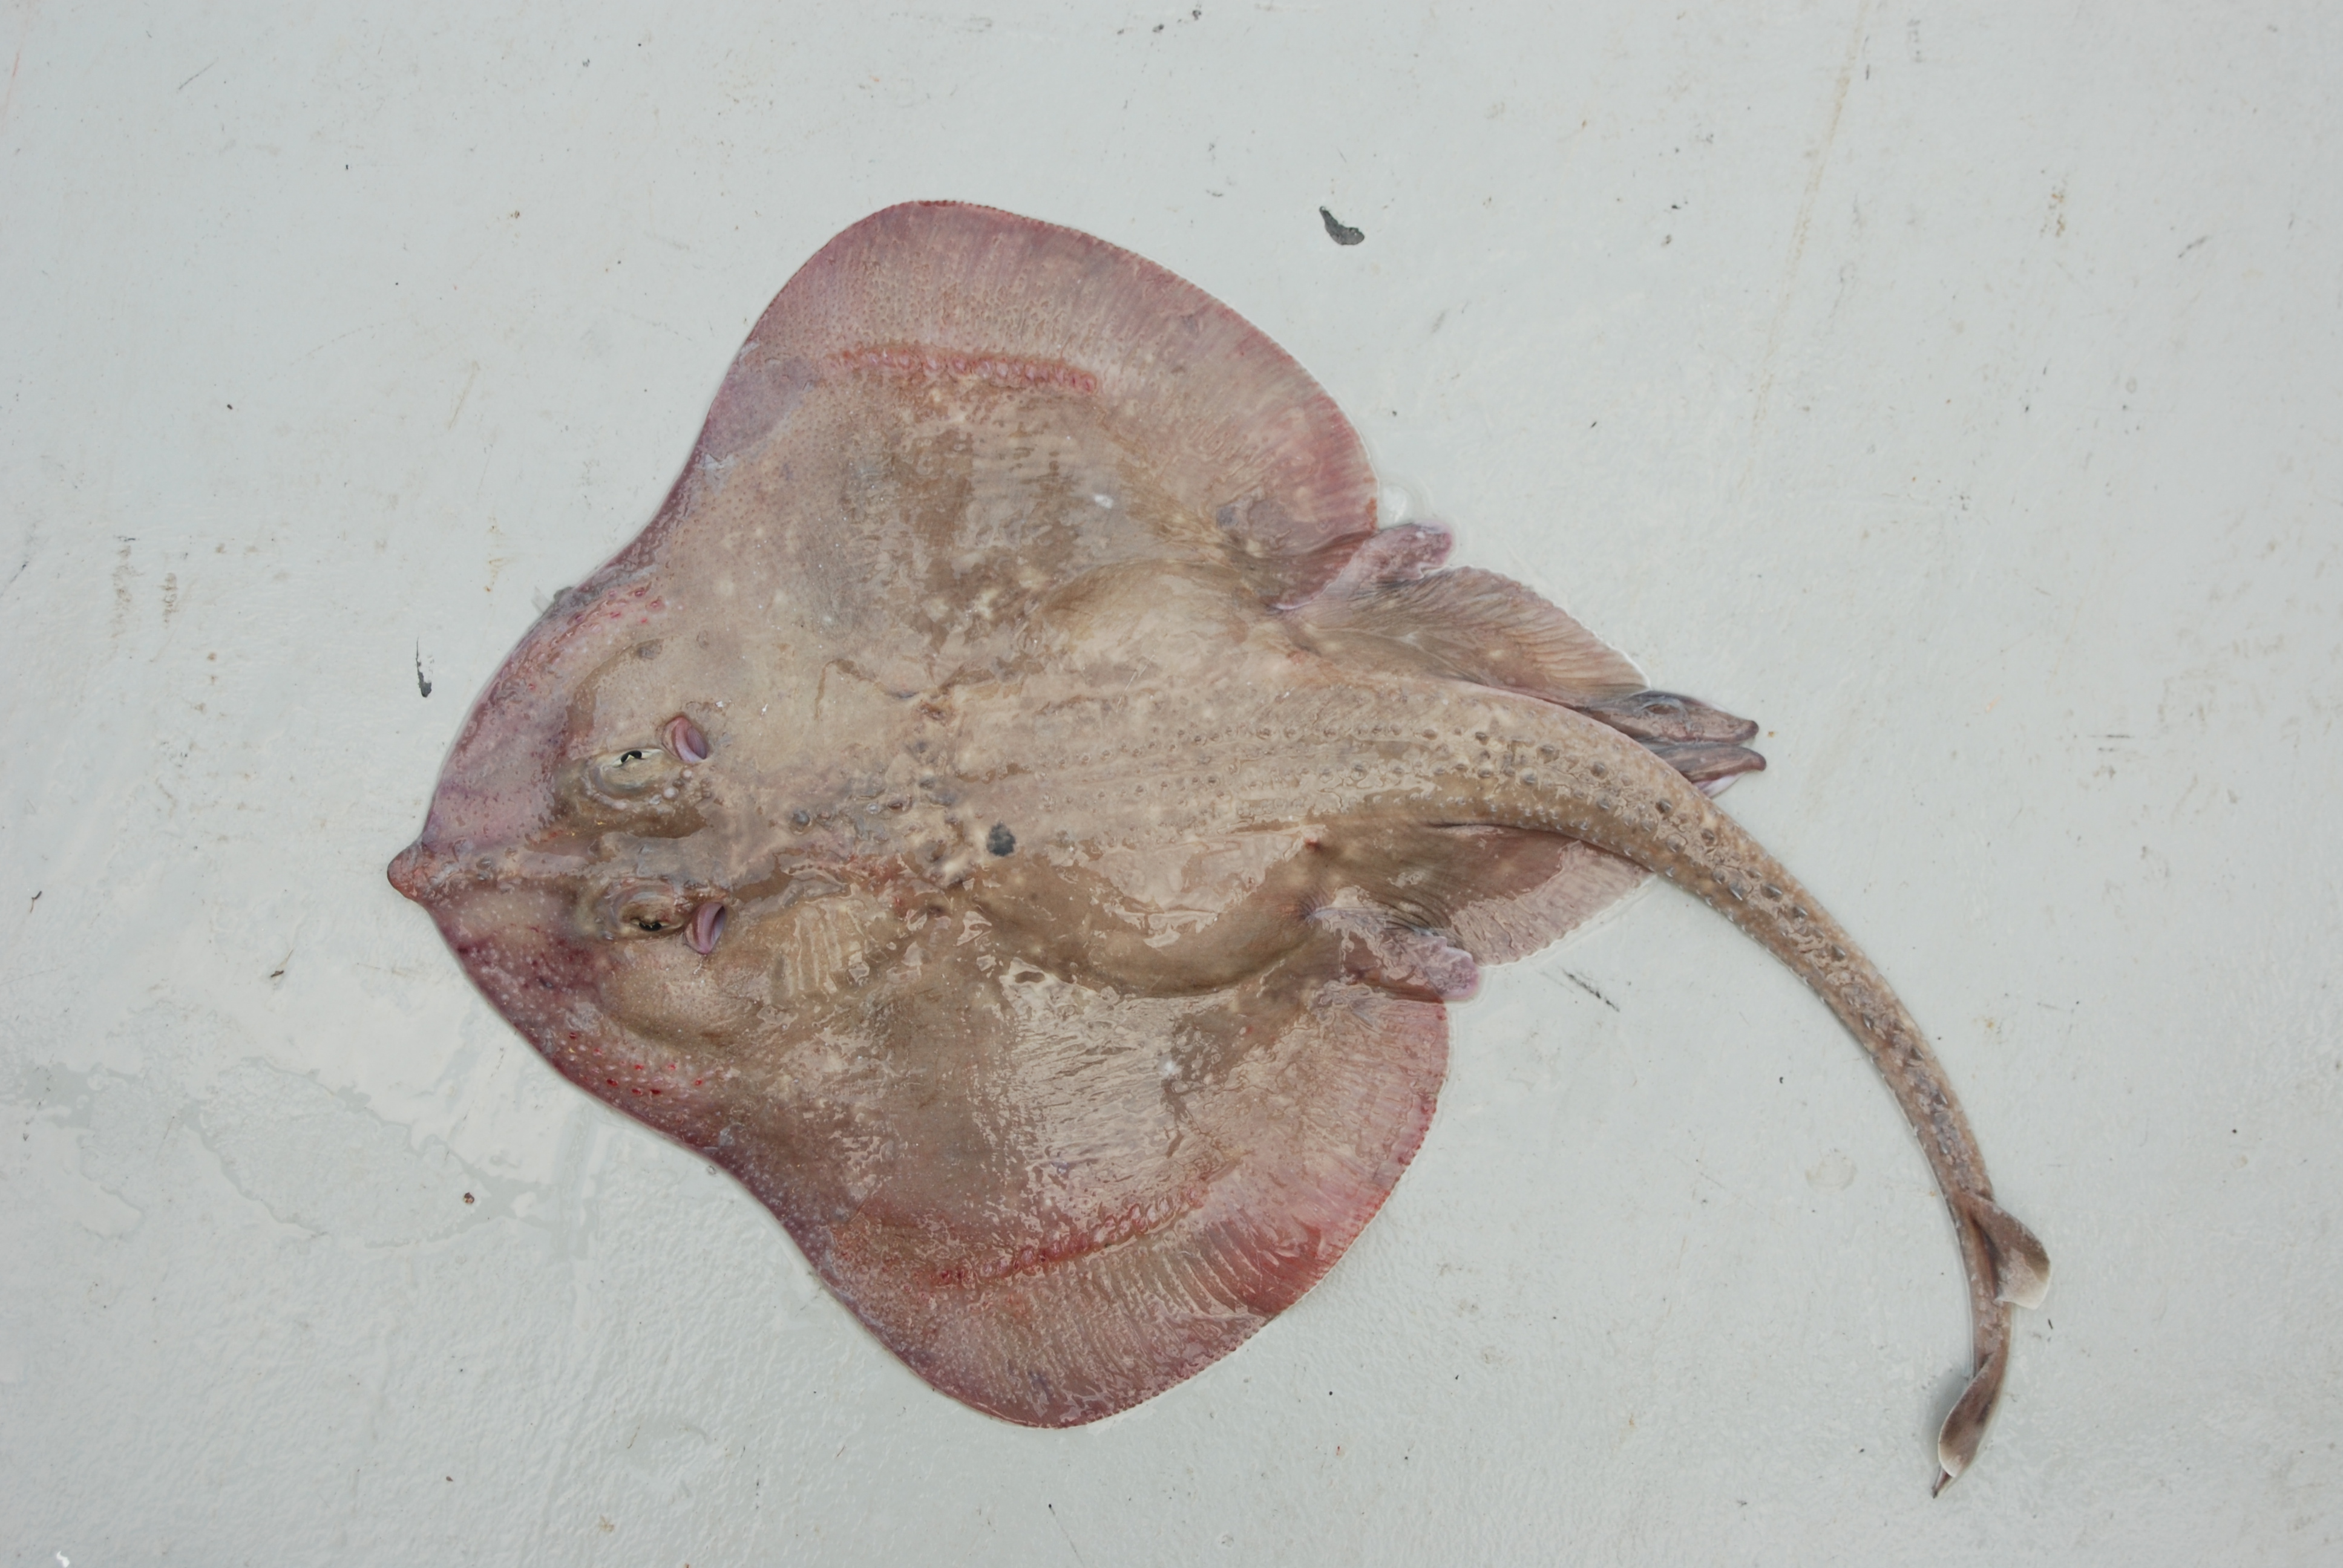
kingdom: Animalia
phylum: Chordata
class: Elasmobranchii
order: Rajiformes
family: Rajidae
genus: Leucoraja
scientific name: Leucoraja wallacei
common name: Blancmange skate
